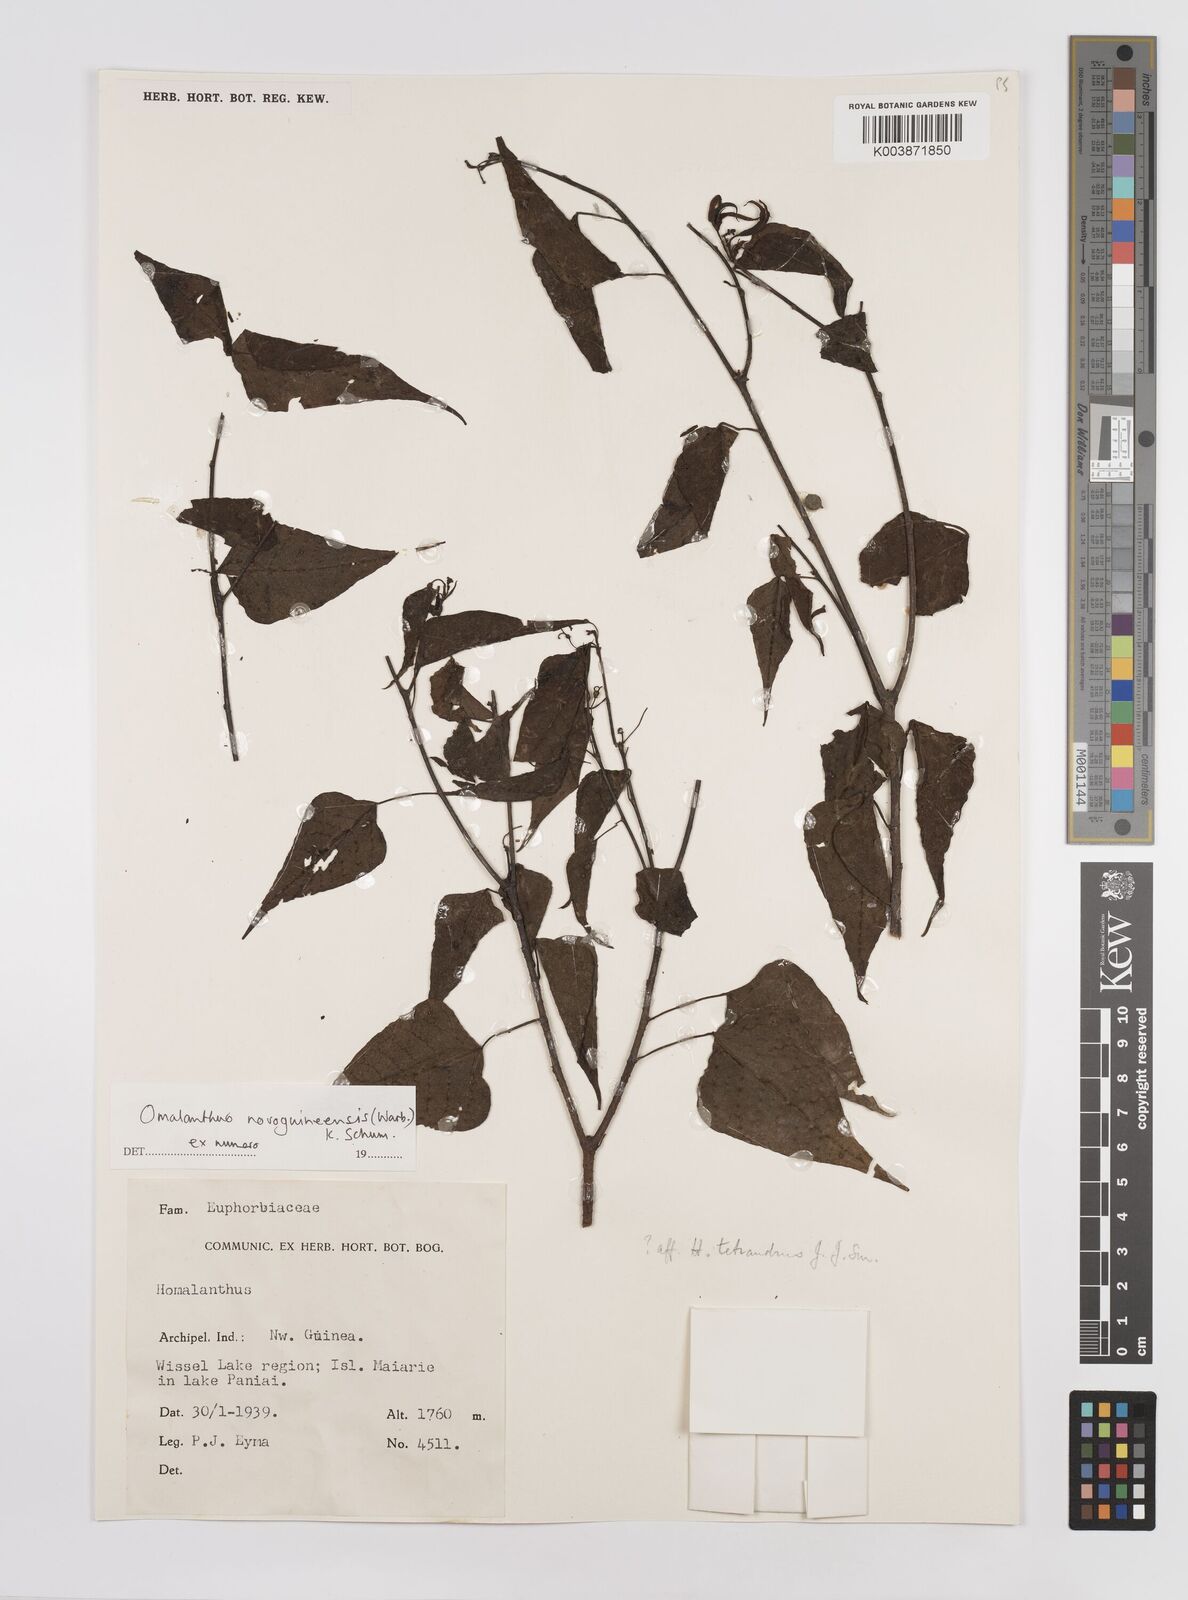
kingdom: Plantae
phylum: Tracheophyta
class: Magnoliopsida
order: Malpighiales
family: Euphorbiaceae
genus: Homalanthus
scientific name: Homalanthus novoguineensis
